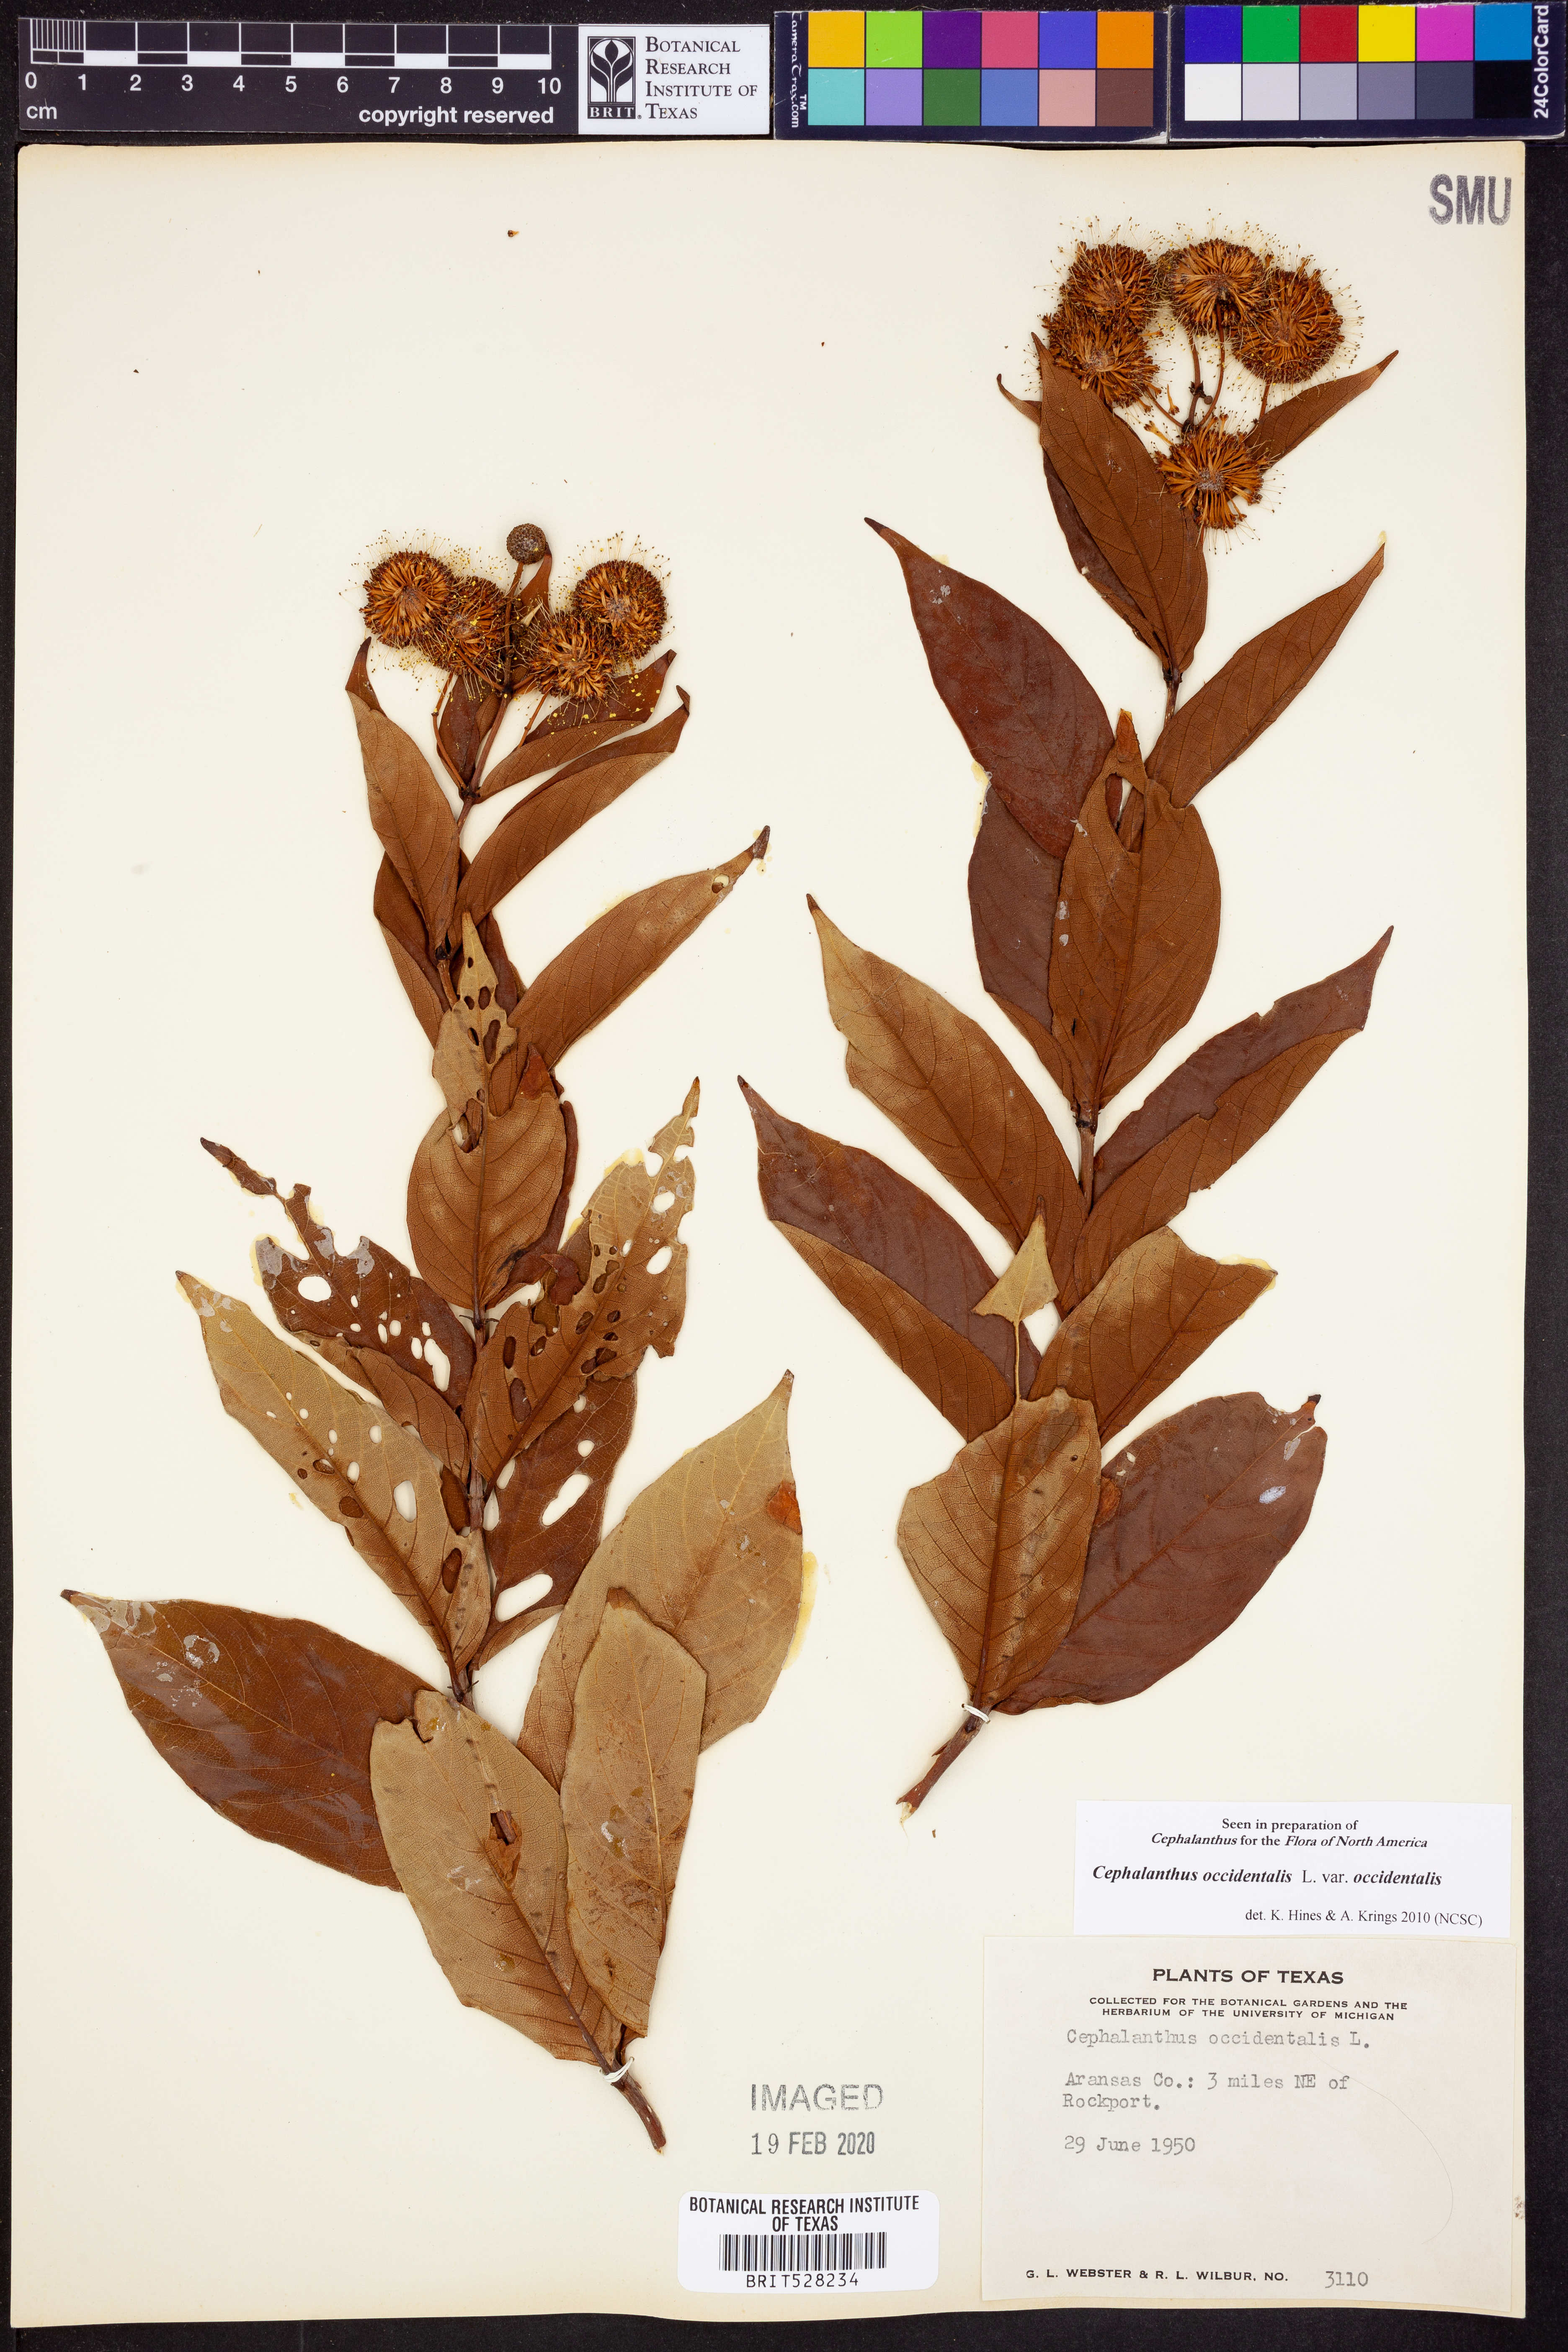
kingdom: Plantae
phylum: Tracheophyta
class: Magnoliopsida
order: Gentianales
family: Rubiaceae
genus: Cephalanthus
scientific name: Cephalanthus occidentalis
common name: Button-willow
